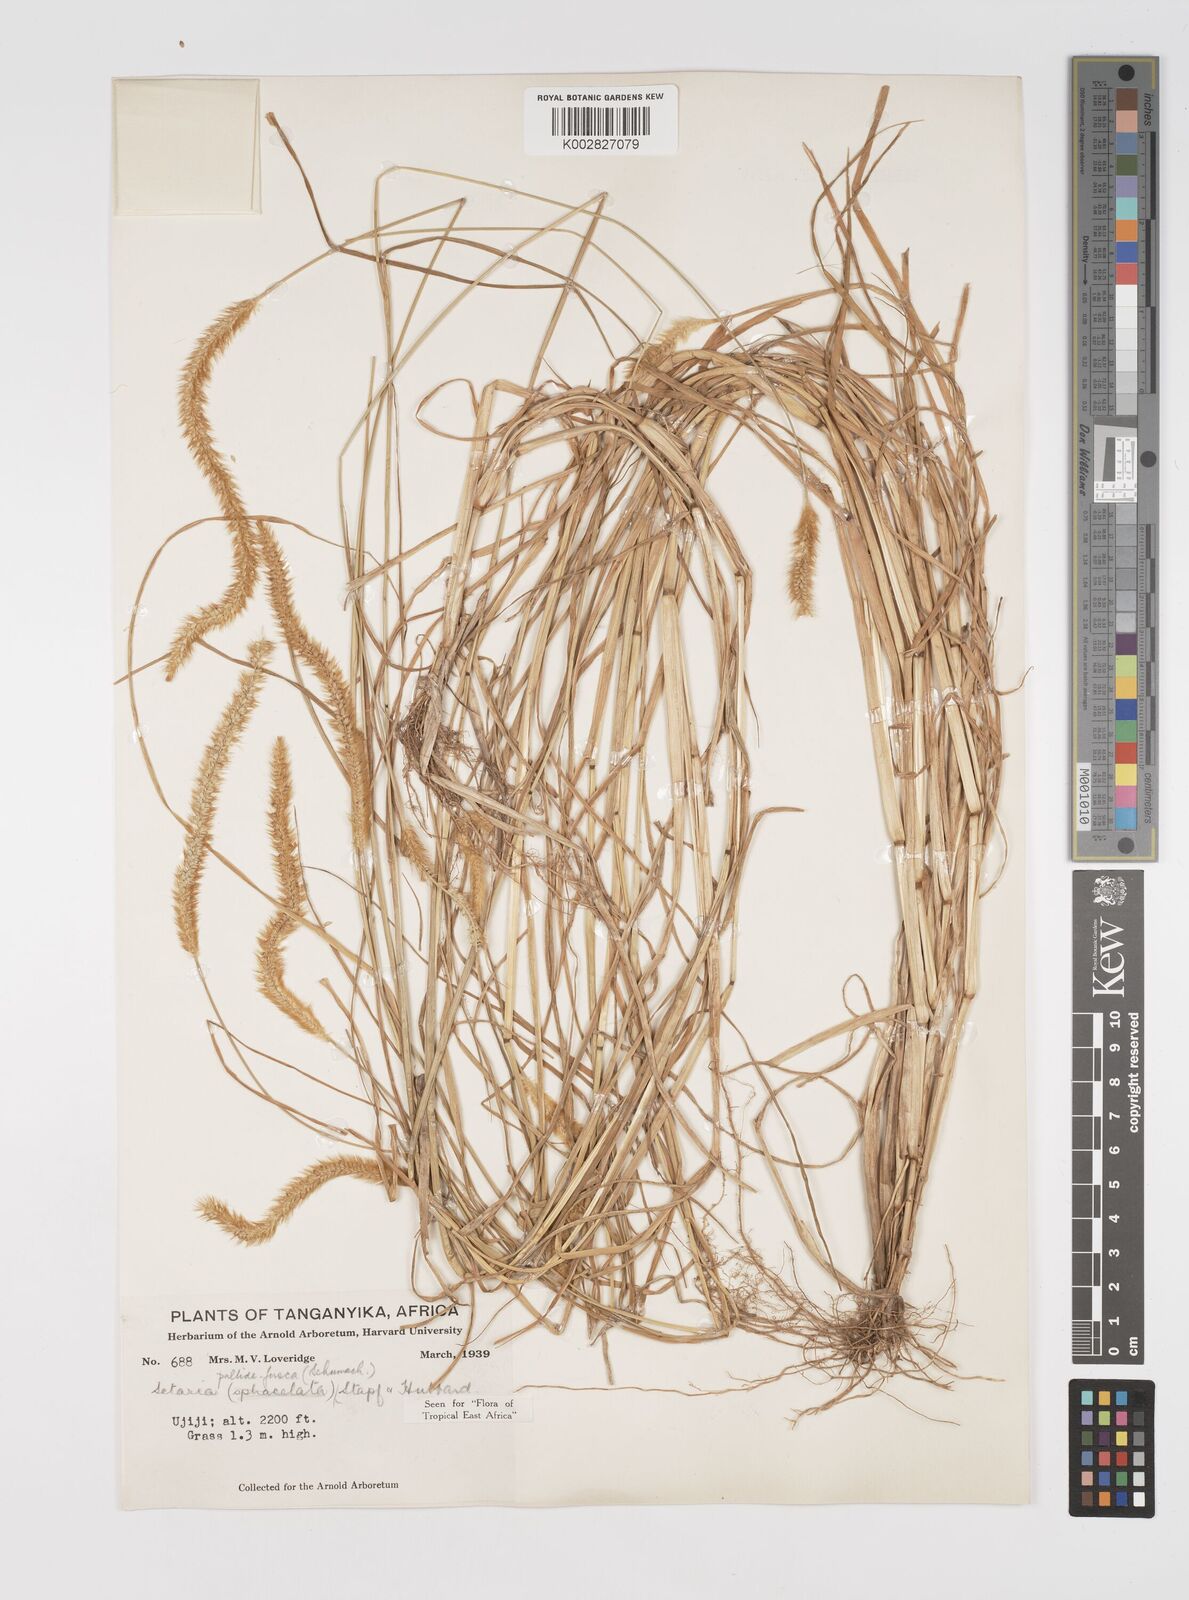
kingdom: Plantae
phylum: Tracheophyta
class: Liliopsida
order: Poales
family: Poaceae
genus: Setaria
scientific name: Setaria pumila
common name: Yellow bristle-grass
